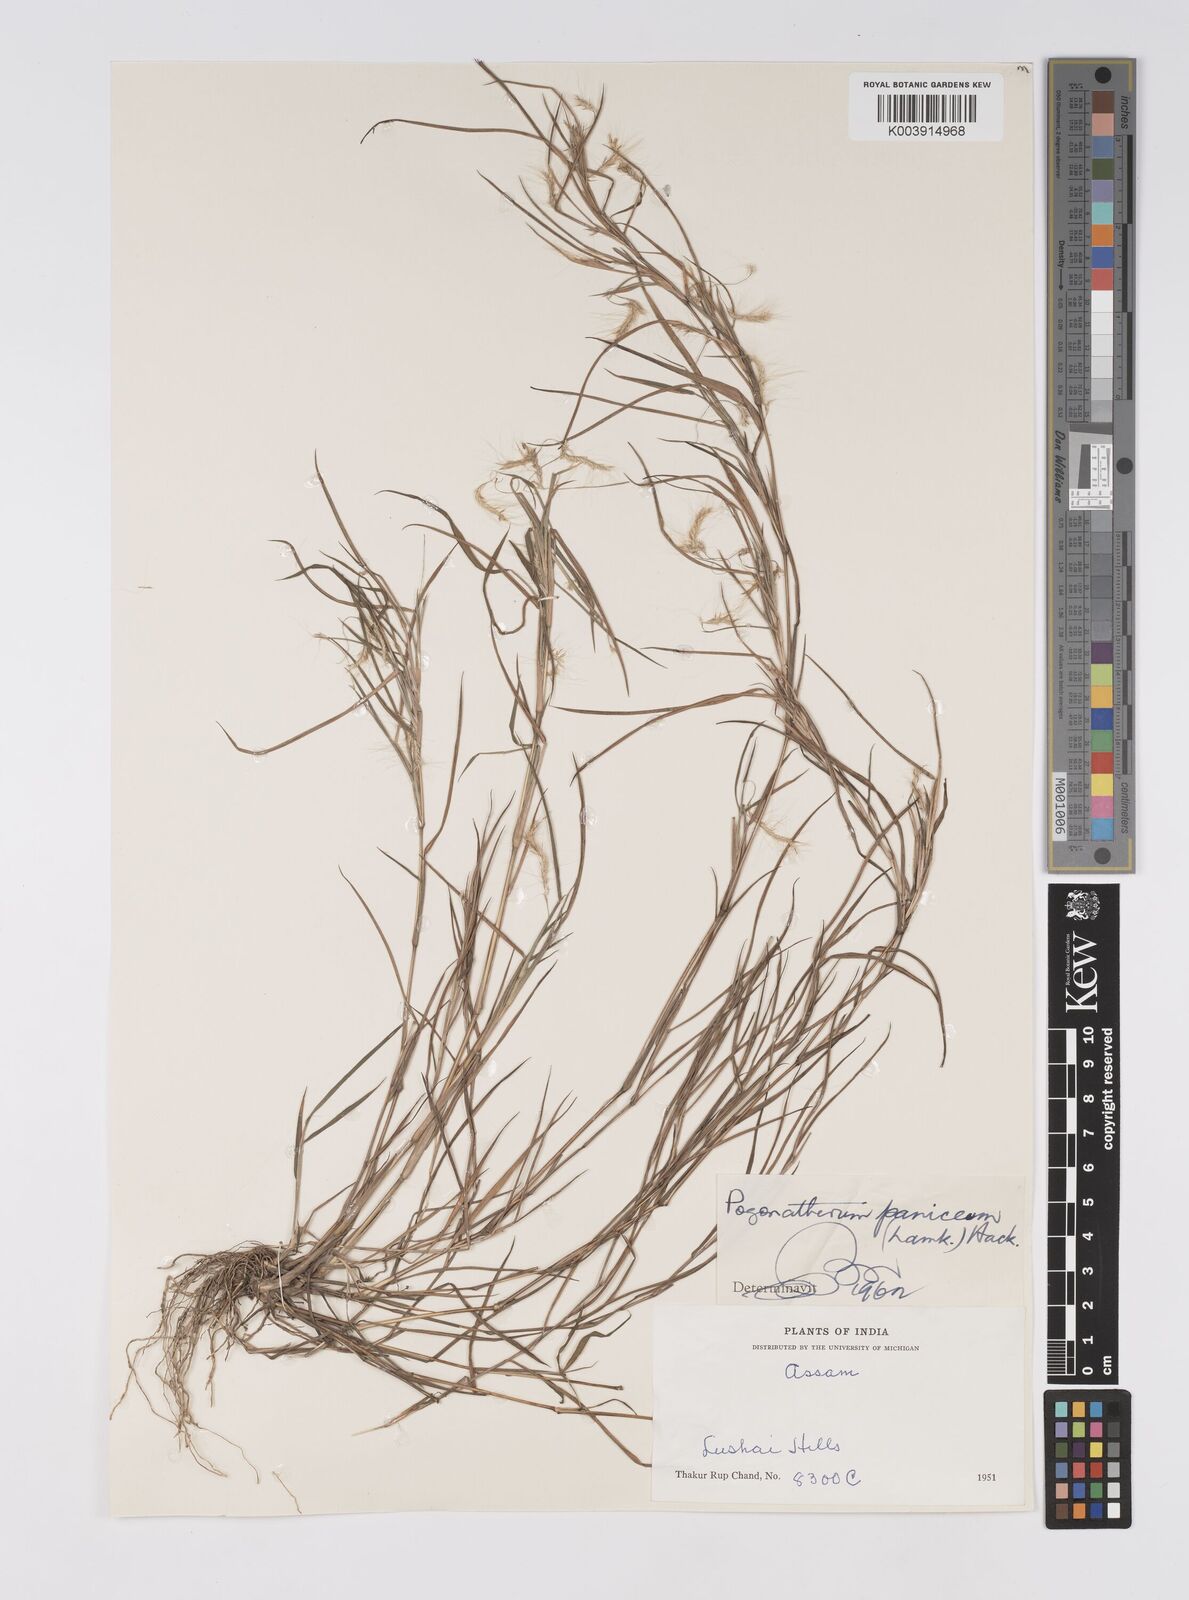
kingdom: Plantae
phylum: Tracheophyta
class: Liliopsida
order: Poales
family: Poaceae
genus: Pogonatherum
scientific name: Pogonatherum paniceum
